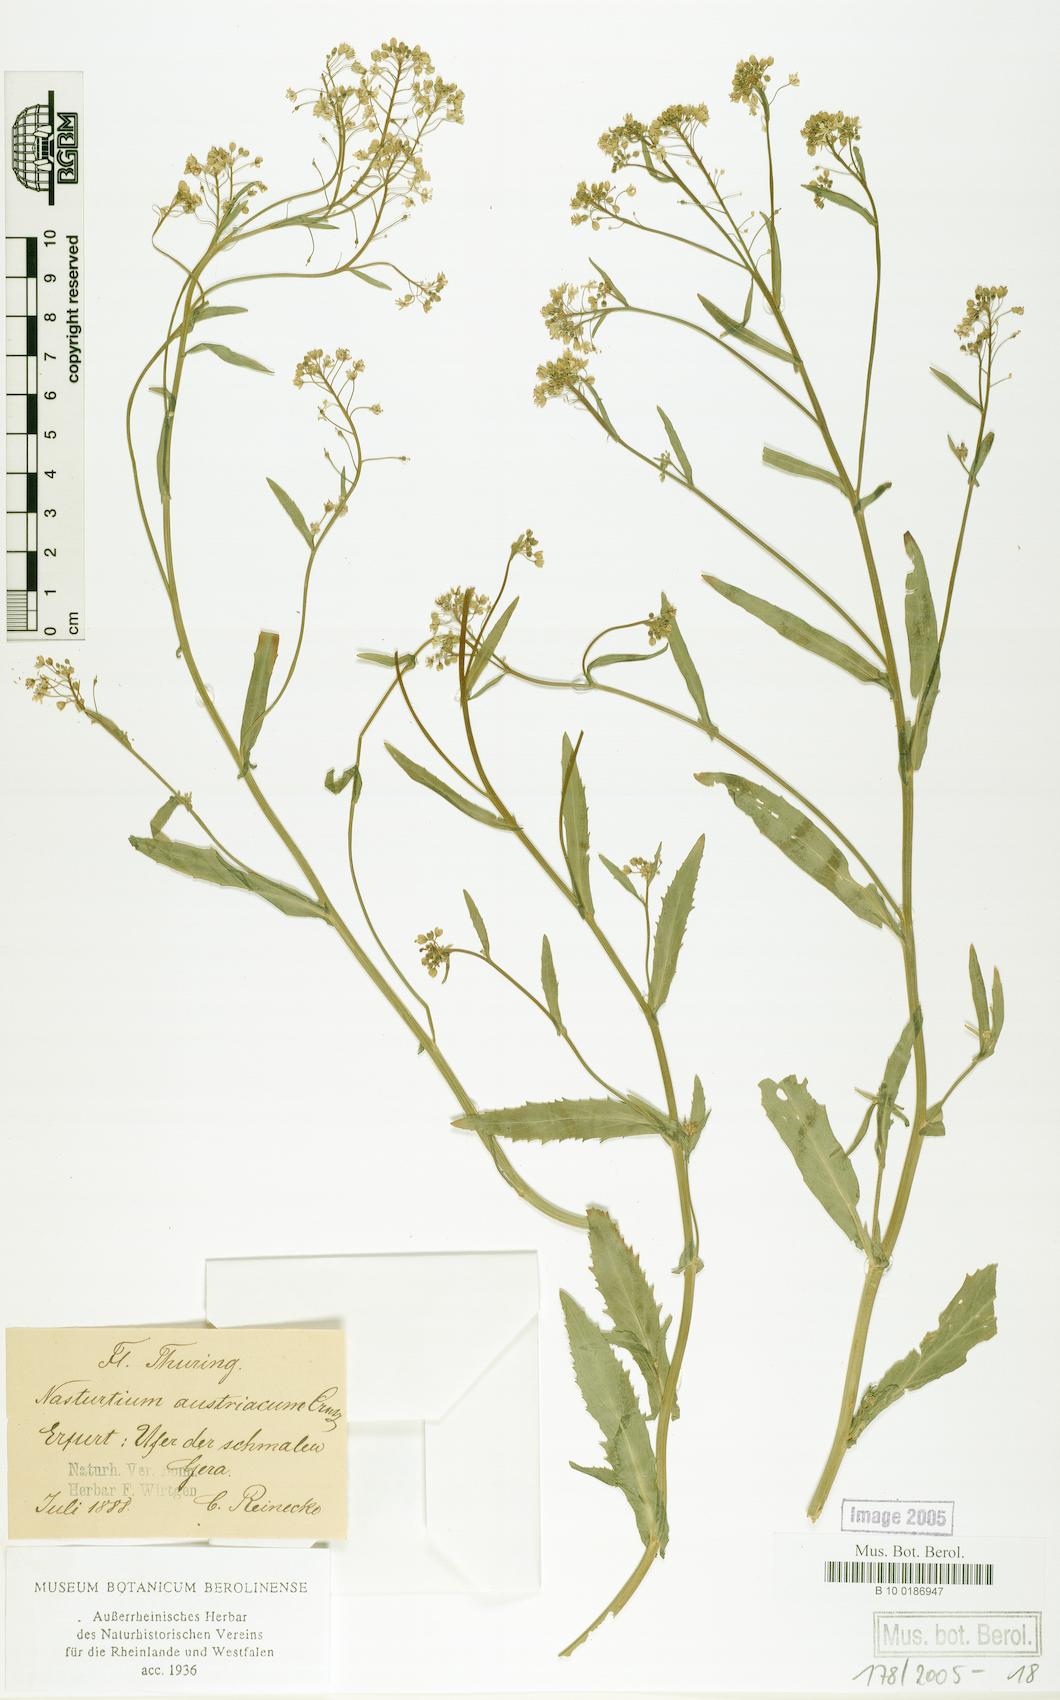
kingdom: Plantae
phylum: Tracheophyta
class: Magnoliopsida
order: Brassicales
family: Brassicaceae
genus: Rorippa
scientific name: Rorippa austriaca
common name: Austrian yellow-cress
